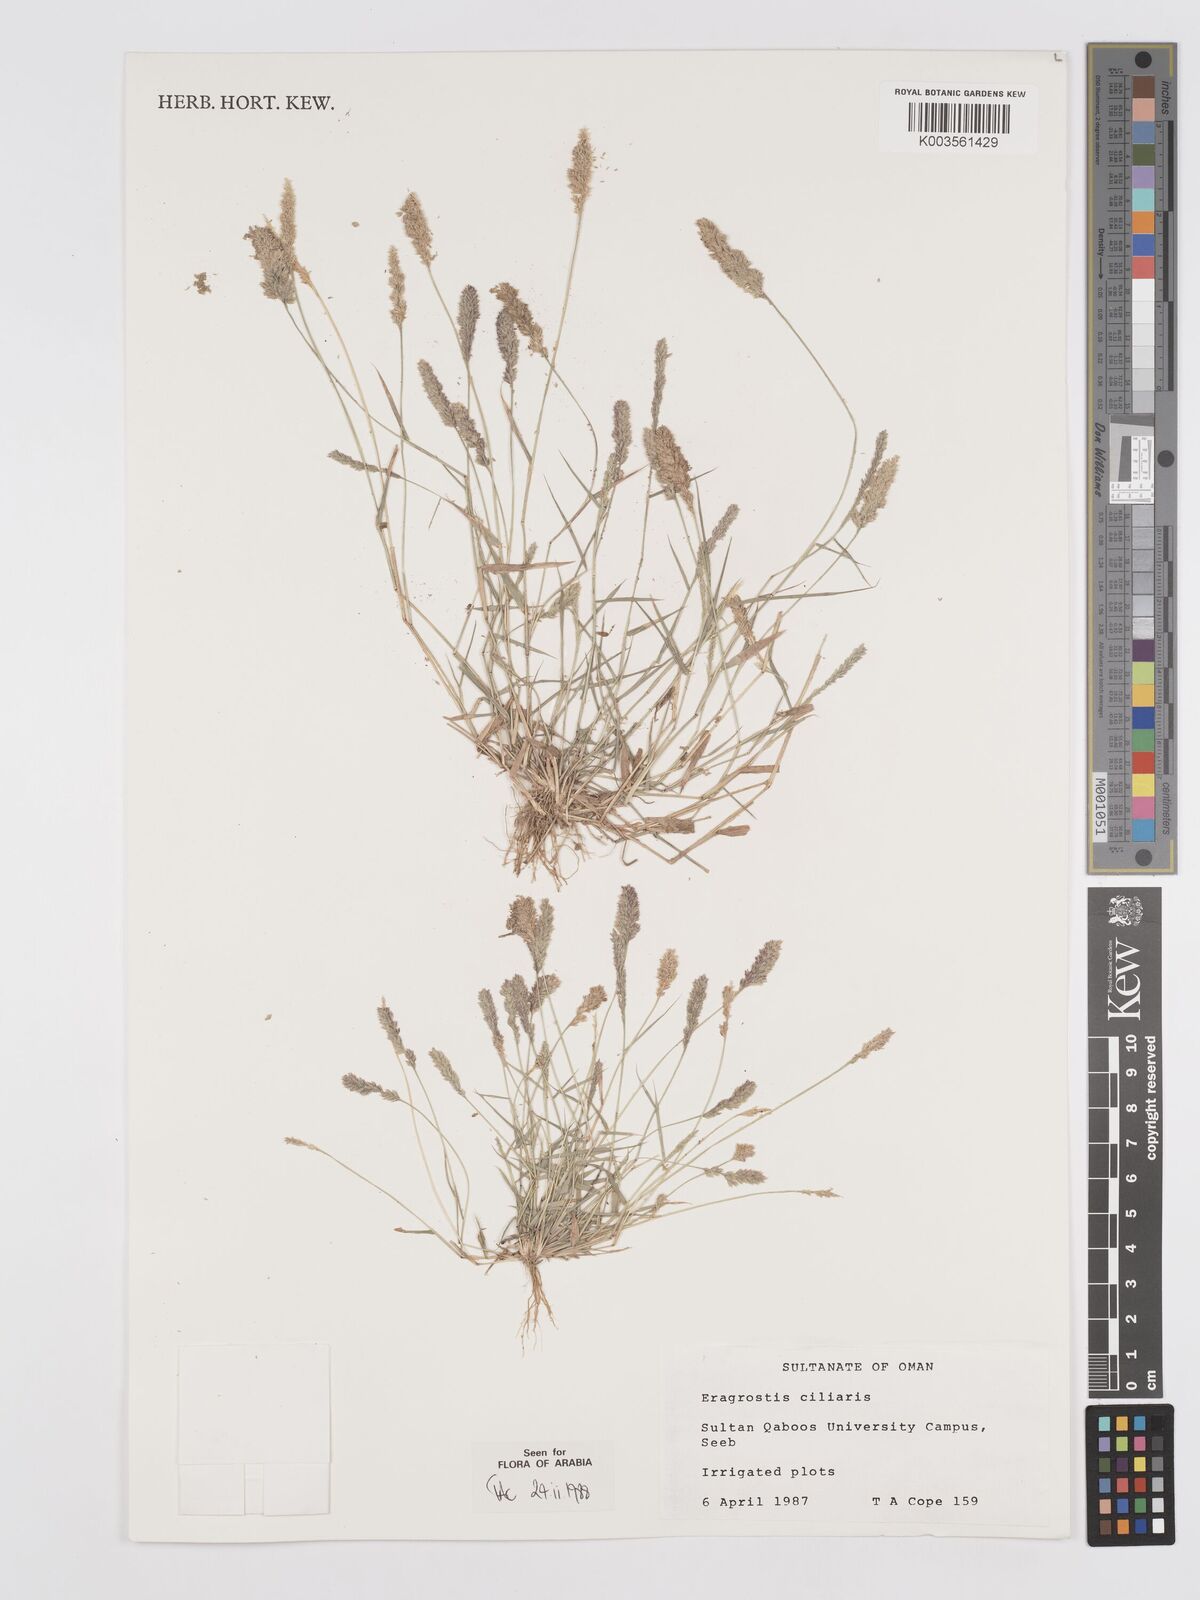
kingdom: Plantae
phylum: Tracheophyta
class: Liliopsida
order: Poales
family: Poaceae
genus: Eragrostis
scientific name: Eragrostis ciliaris
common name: Gophertail lovegrass
